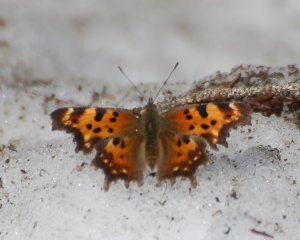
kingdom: Animalia
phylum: Arthropoda
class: Insecta
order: Lepidoptera
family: Nymphalidae
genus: Polygonia
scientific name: Polygonia faunus
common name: Green Comma
